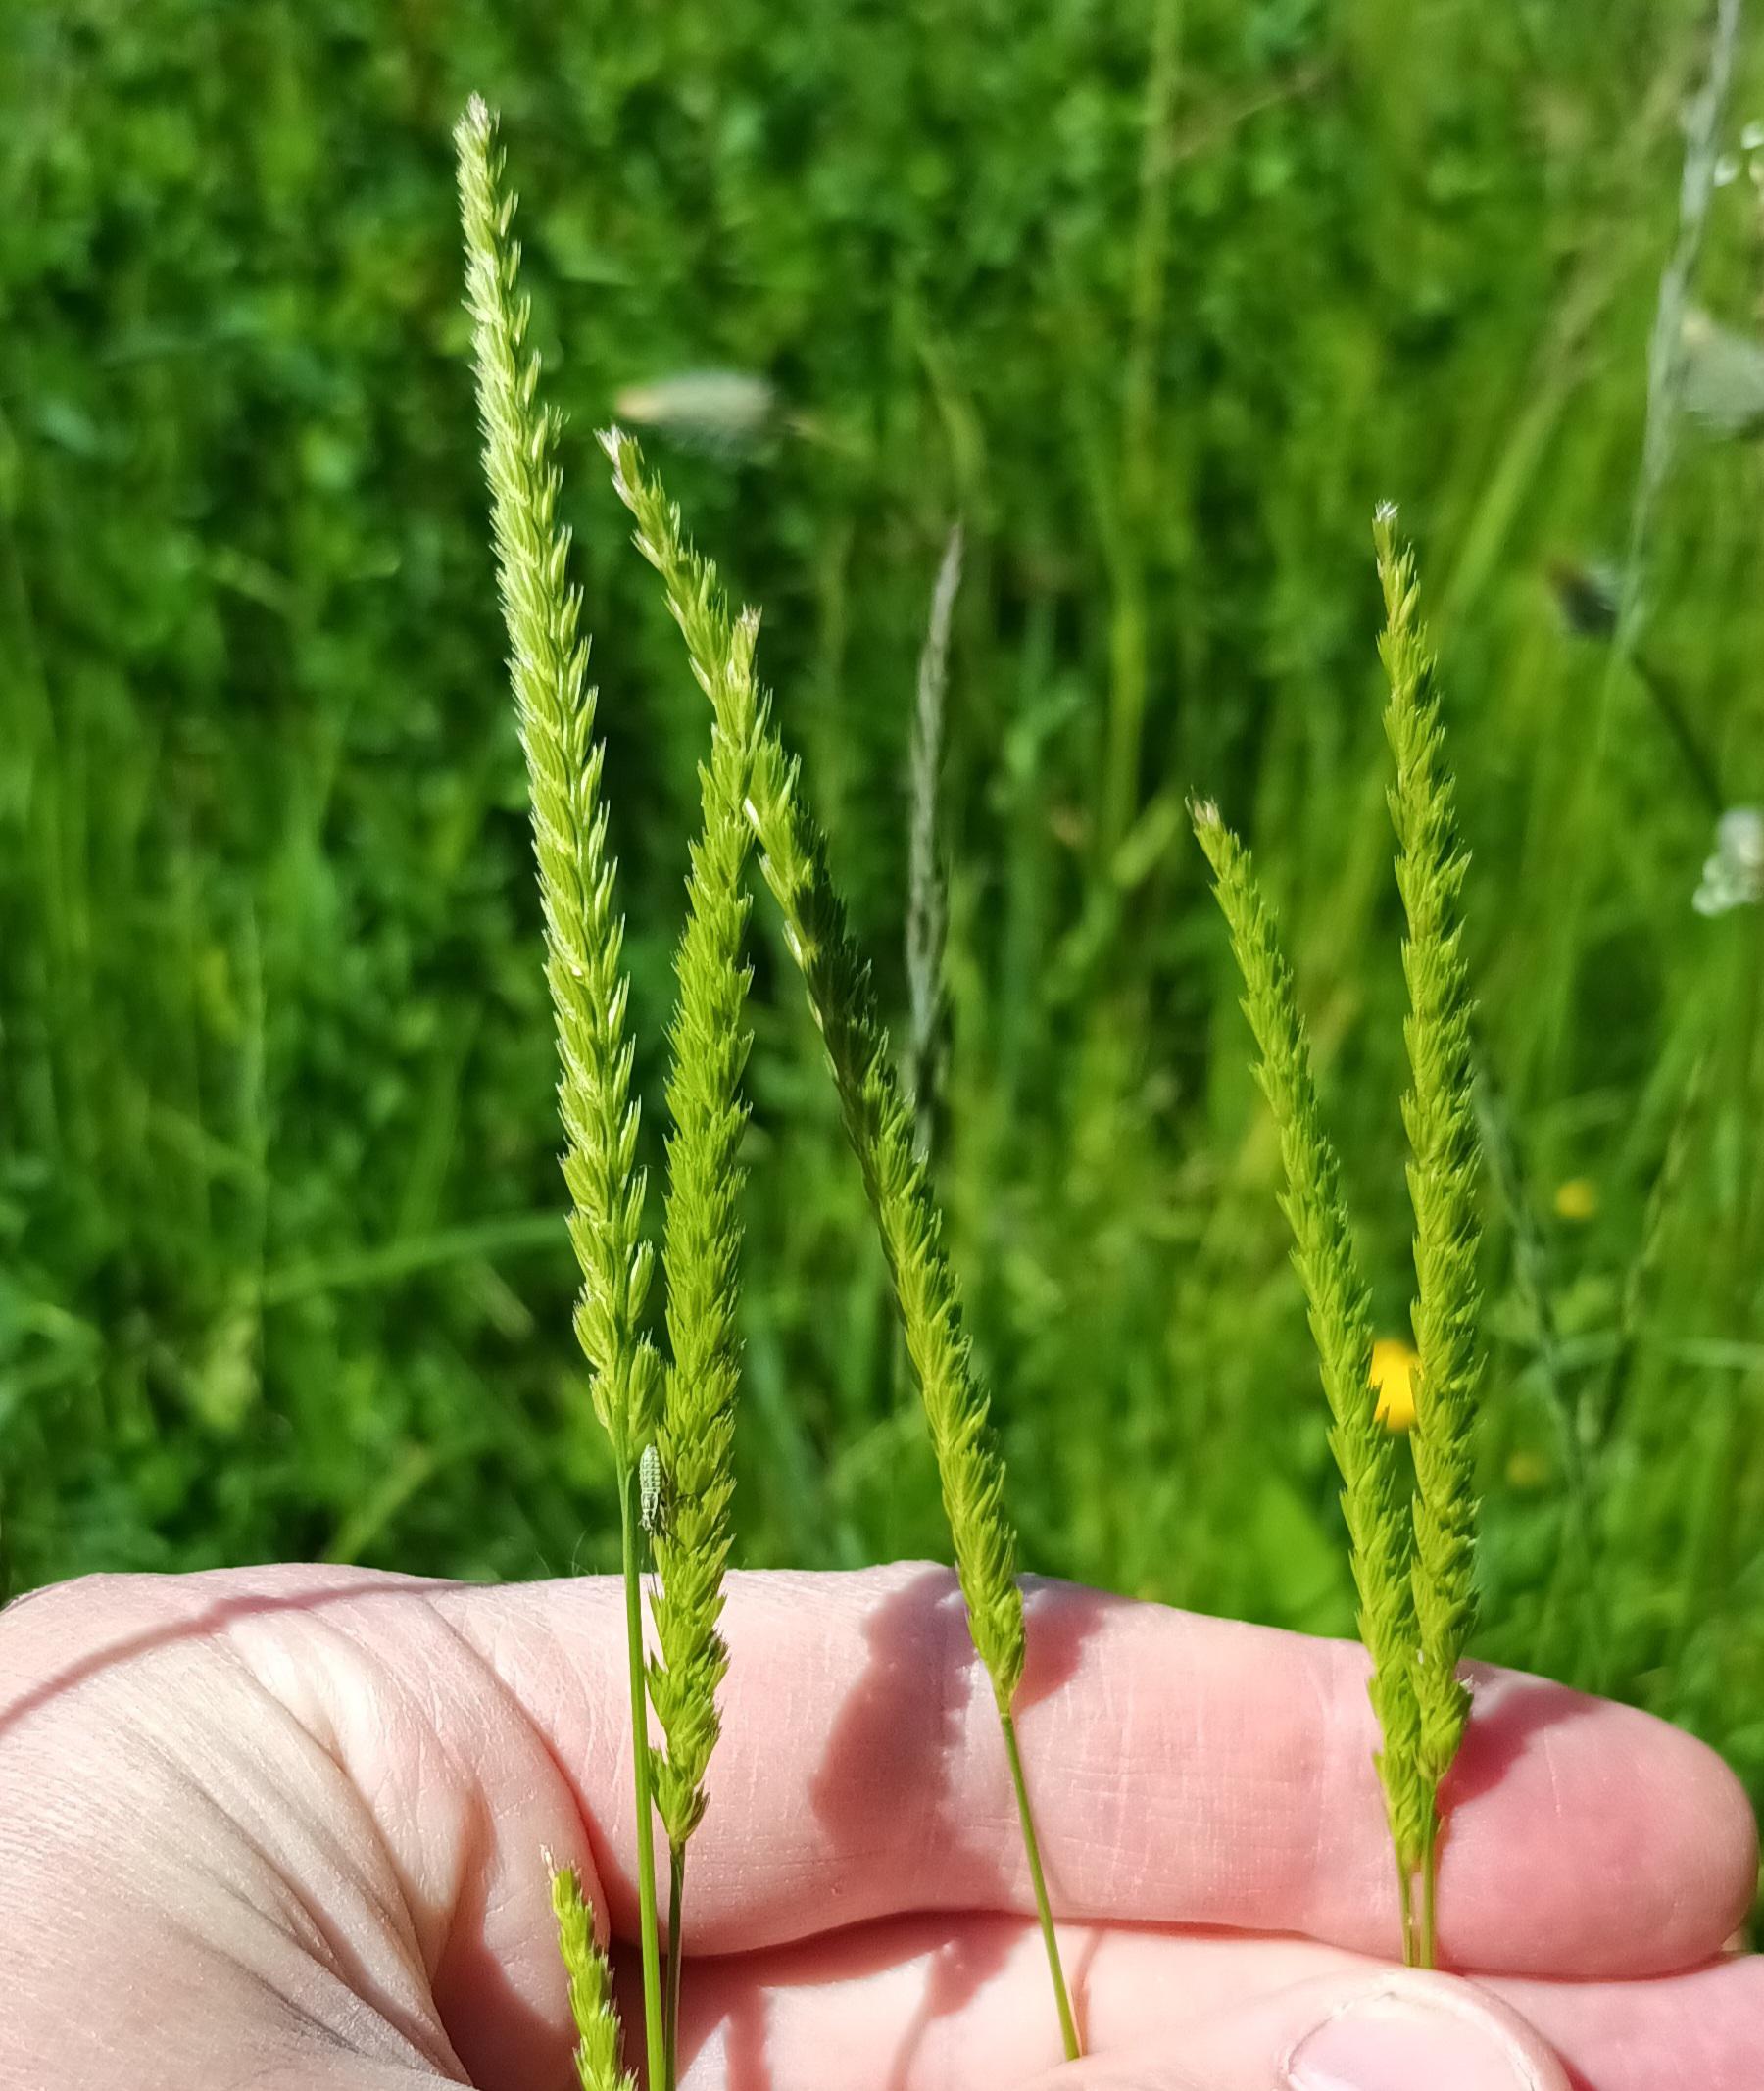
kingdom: Plantae
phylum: Tracheophyta
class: Liliopsida
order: Poales
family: Poaceae
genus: Cynosurus
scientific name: Cynosurus cristatus
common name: Kamgræs
